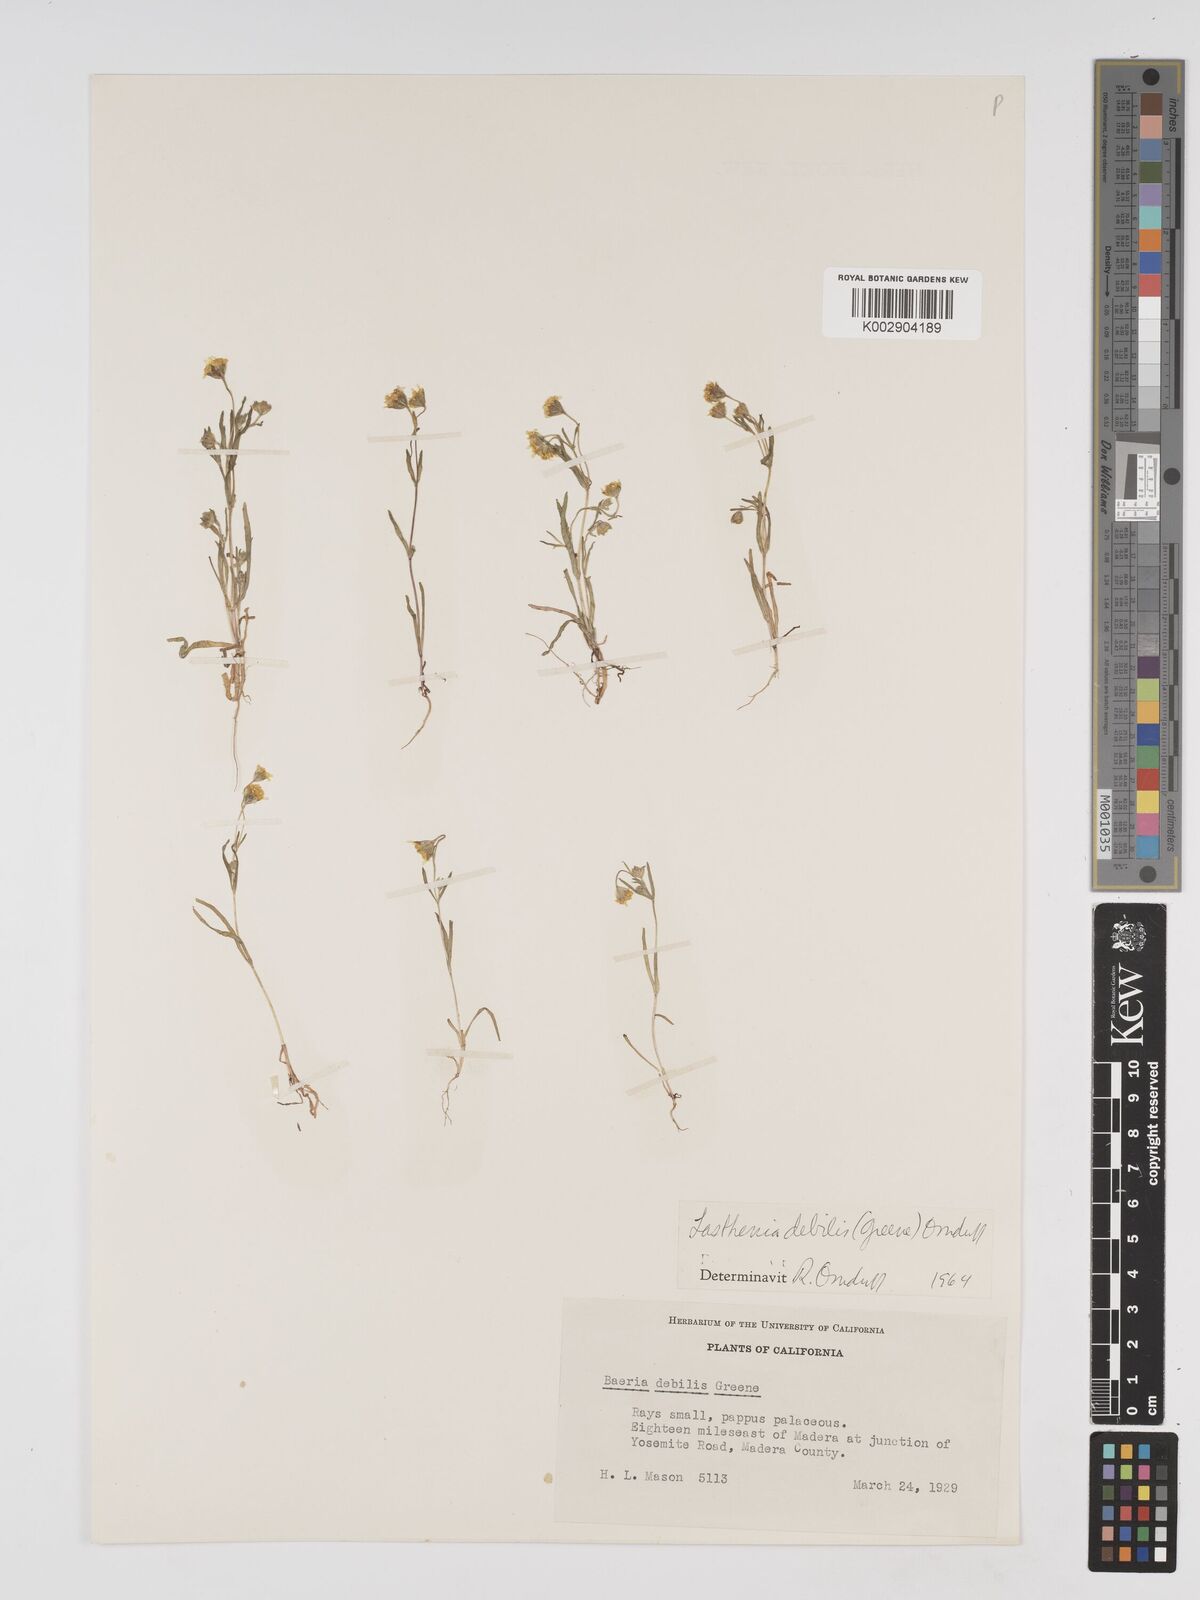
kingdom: Plantae
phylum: Tracheophyta
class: Magnoliopsida
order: Asterales
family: Asteraceae
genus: Lasthenia
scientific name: Lasthenia debilis
